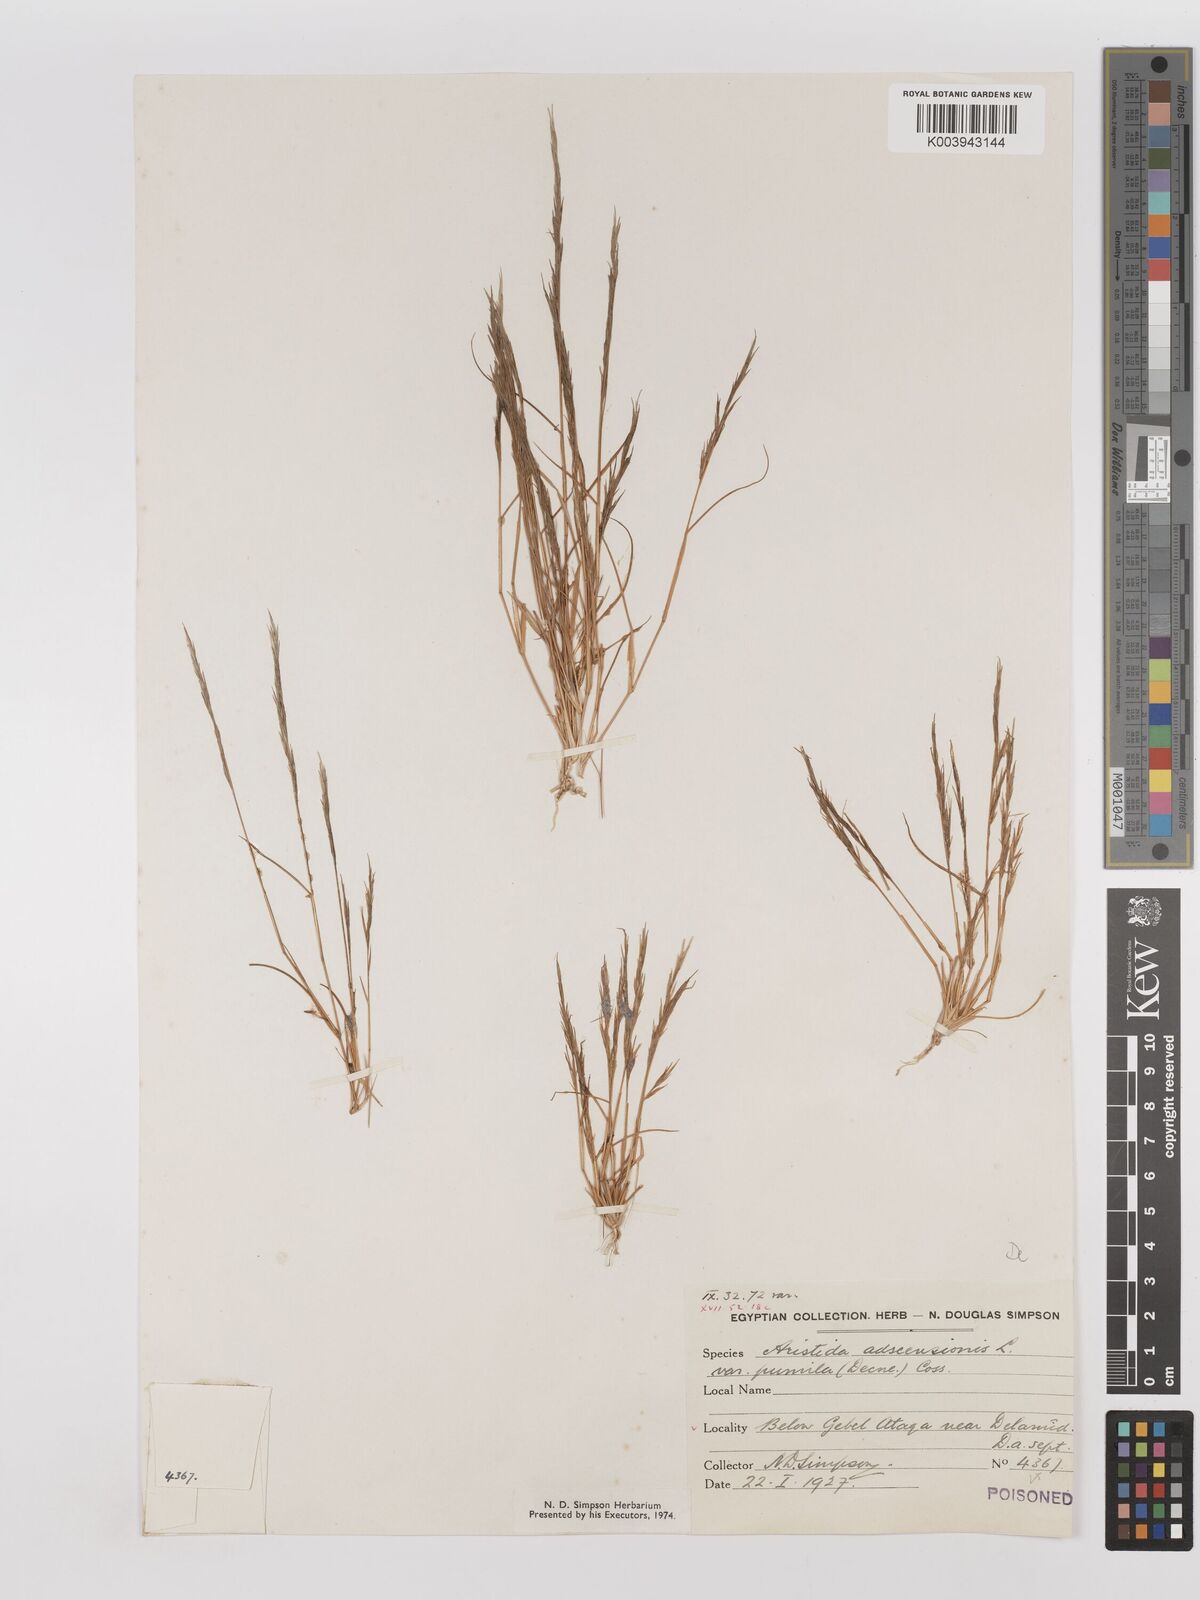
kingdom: Plantae
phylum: Tracheophyta
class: Liliopsida
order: Poales
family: Poaceae
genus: Aristida
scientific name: Aristida adscensionis
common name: Sixweeks threeawn
